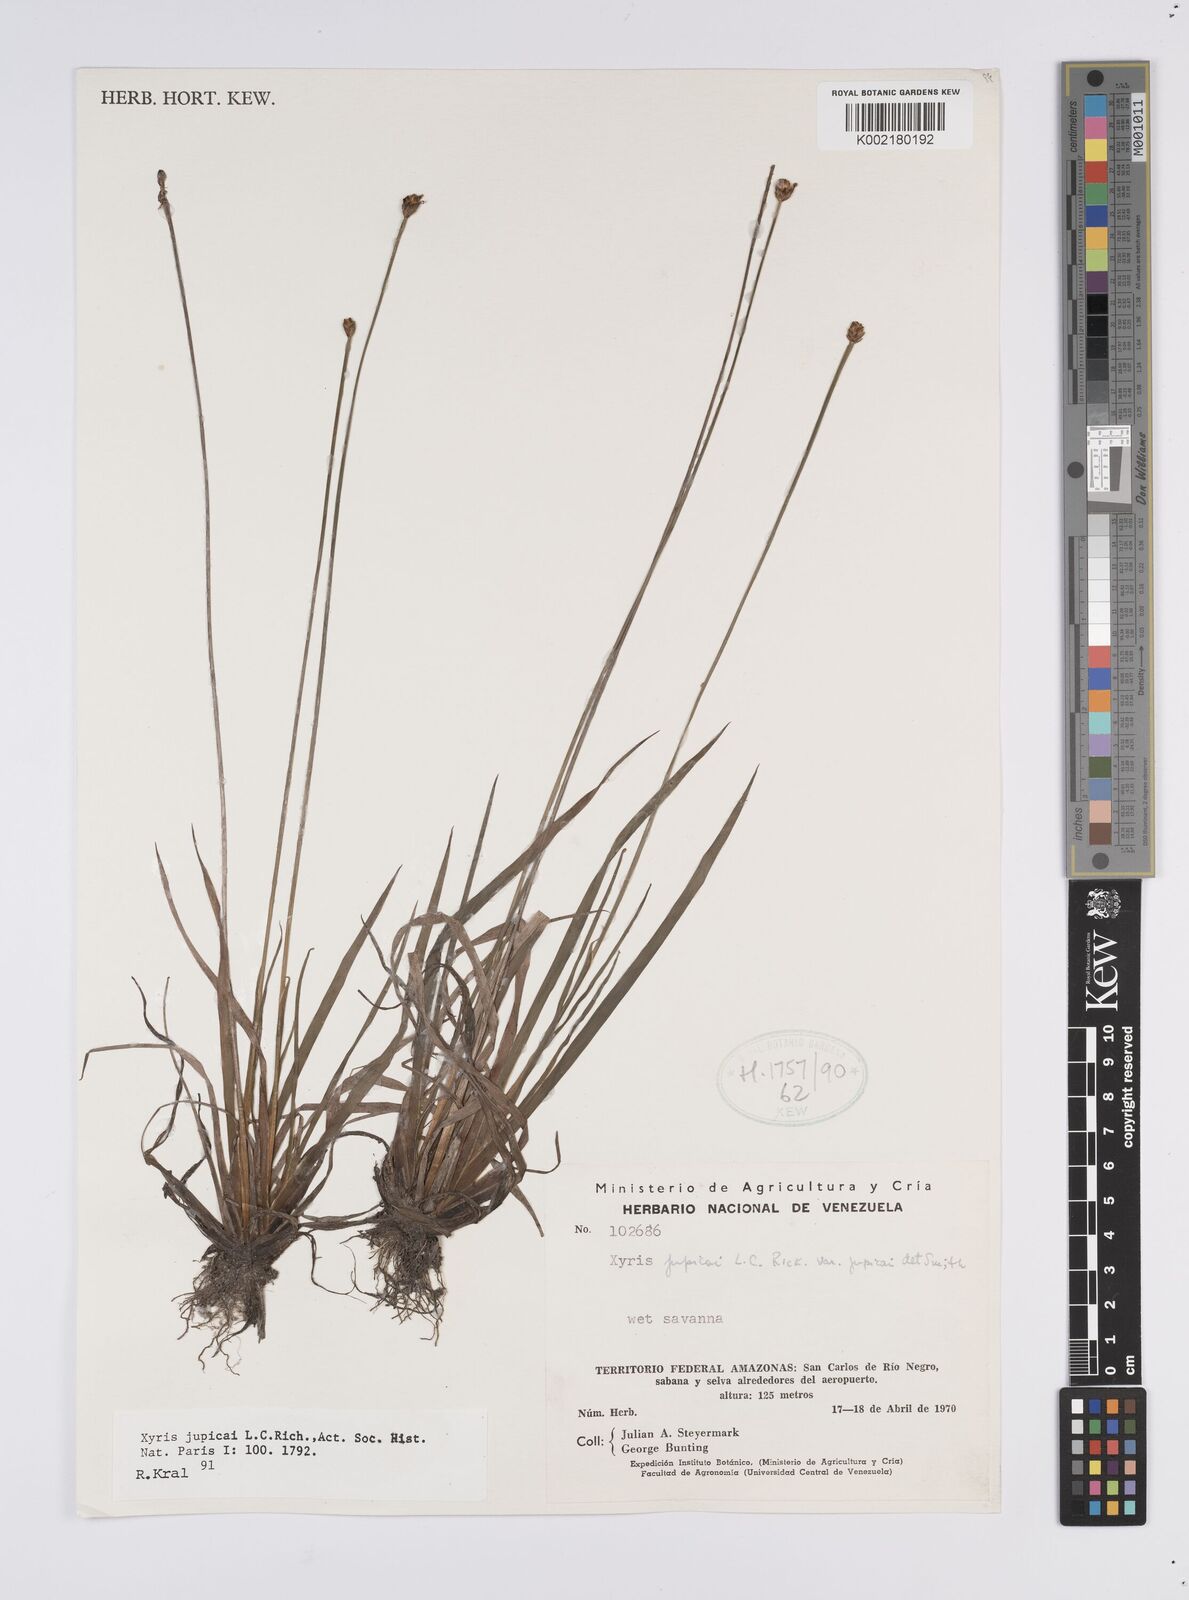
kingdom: Plantae
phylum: Tracheophyta
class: Liliopsida
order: Poales
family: Xyridaceae
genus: Xyris
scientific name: Xyris jupicai
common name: Richard's yelloweyed grass
